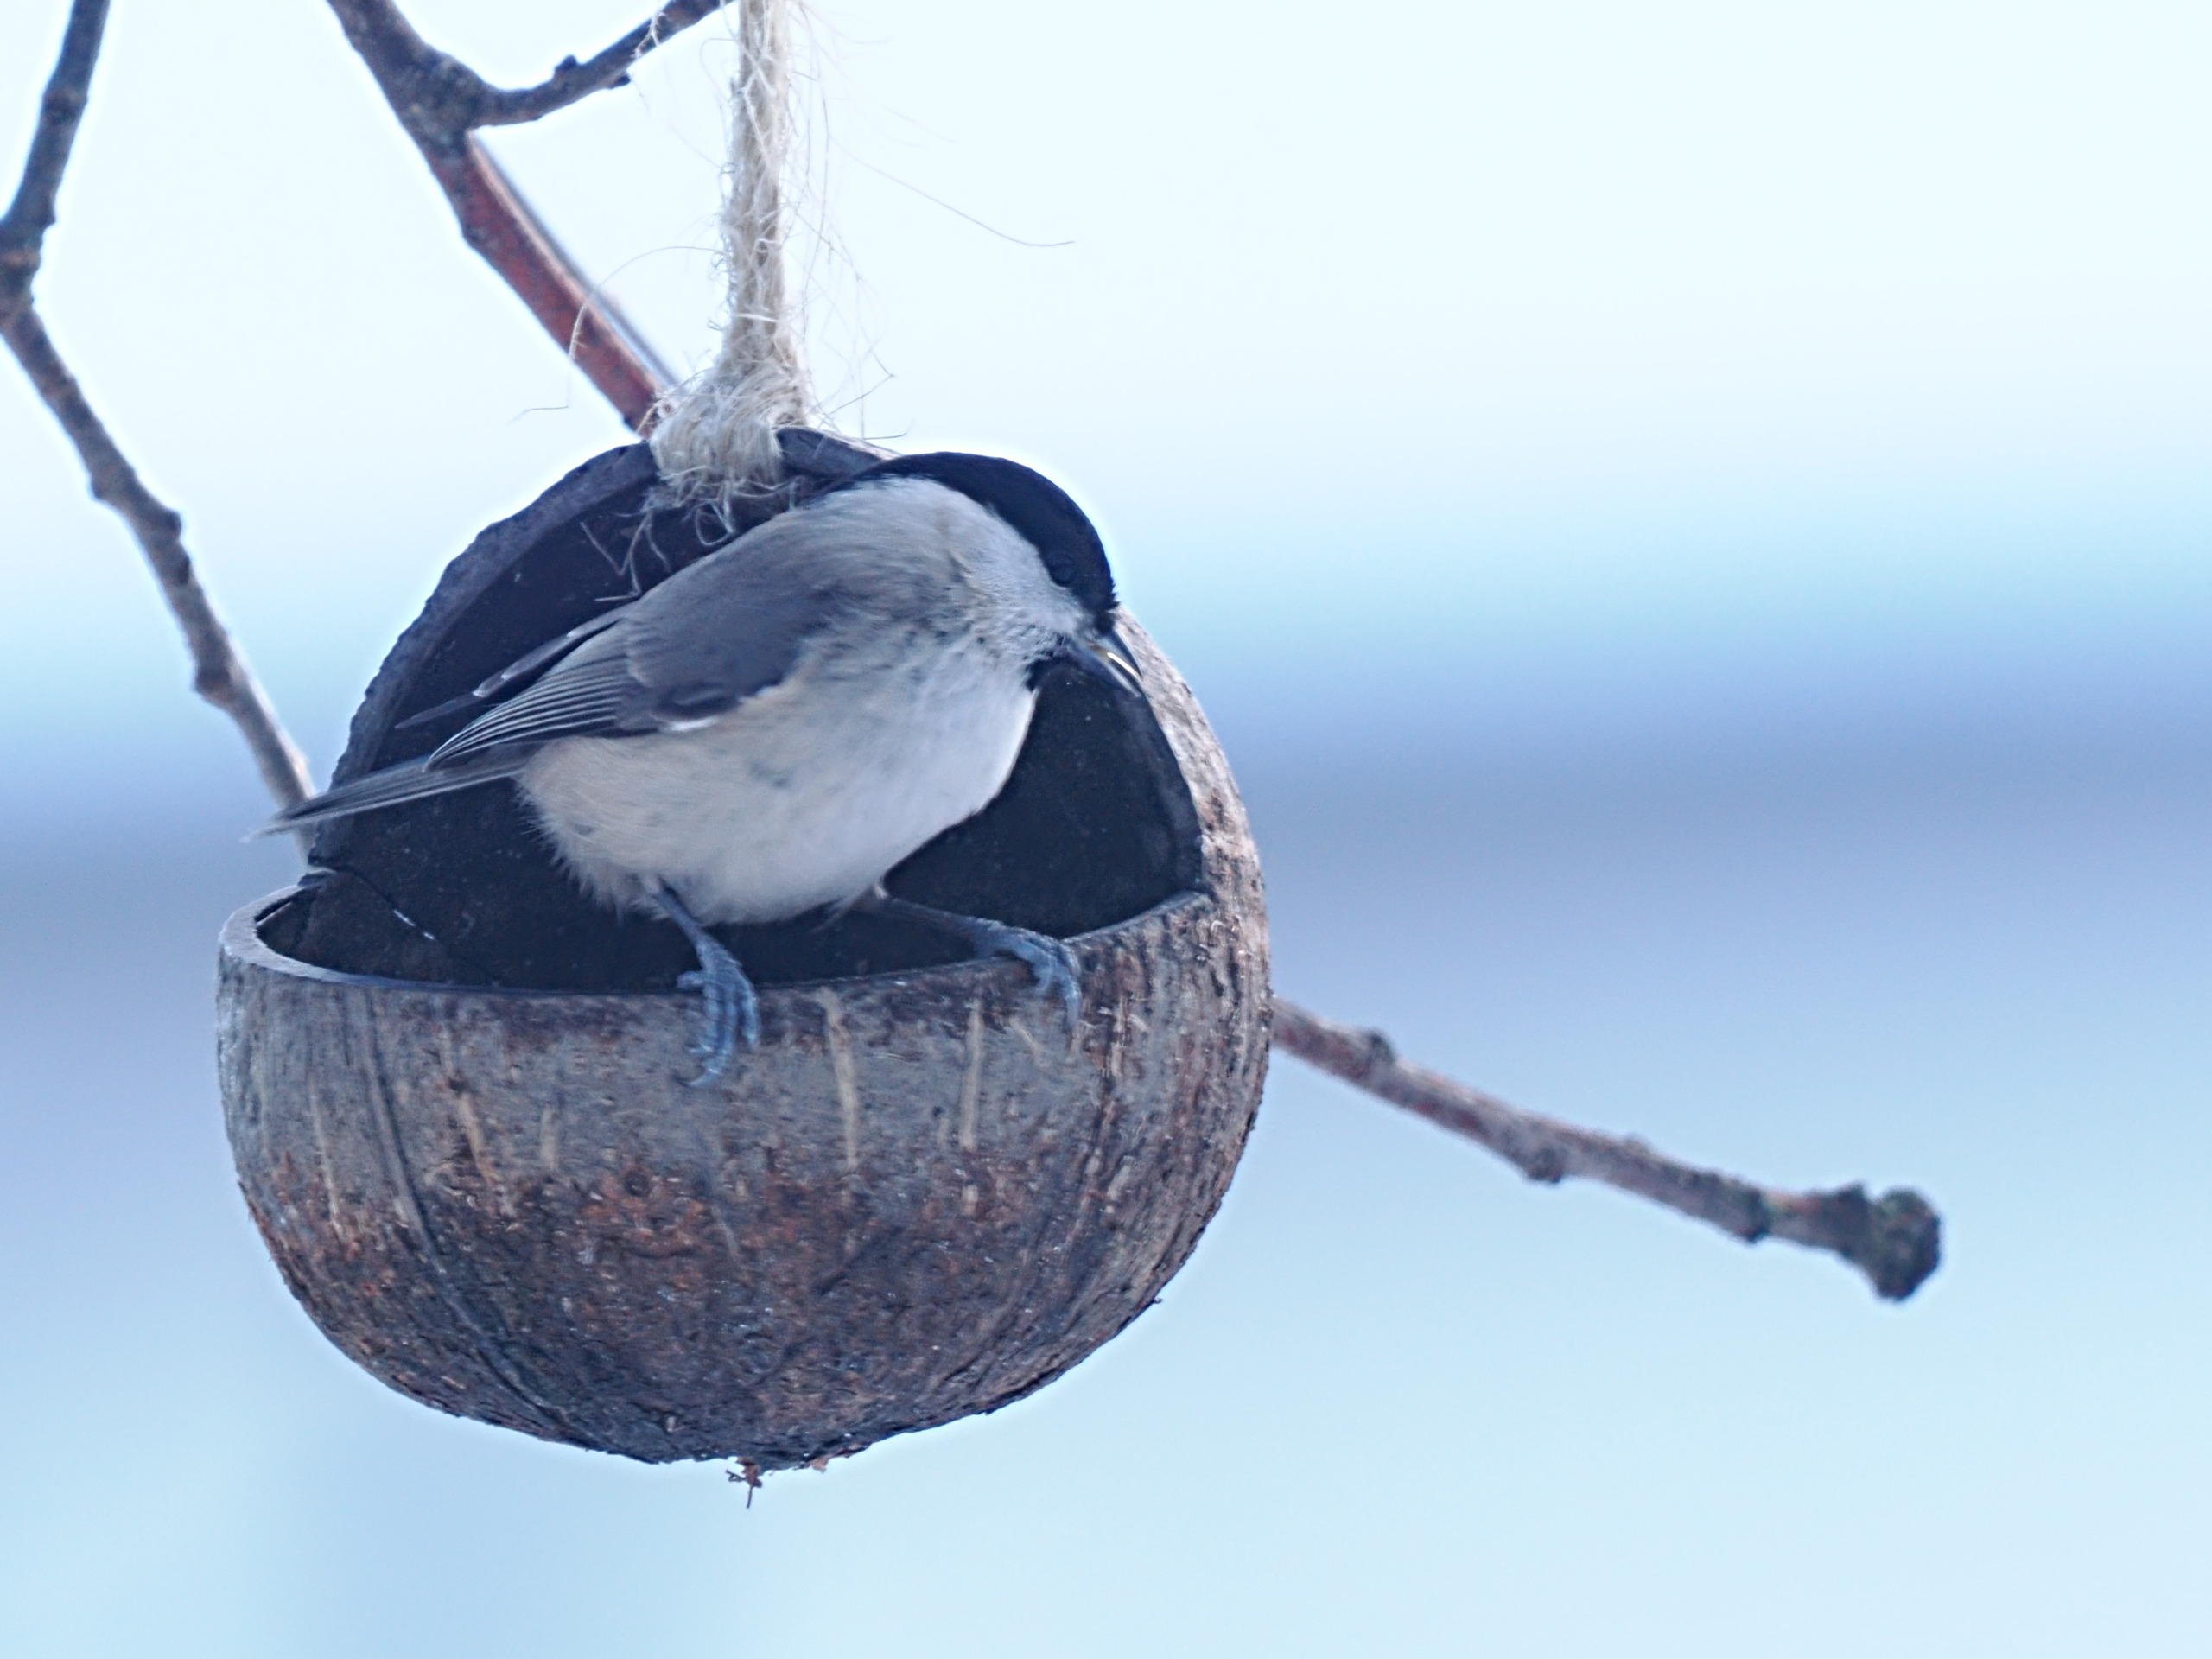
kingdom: Animalia
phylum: Chordata
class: Aves
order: Passeriformes
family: Paridae
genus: Poecile
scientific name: Poecile palustris
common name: Sumpmejse
